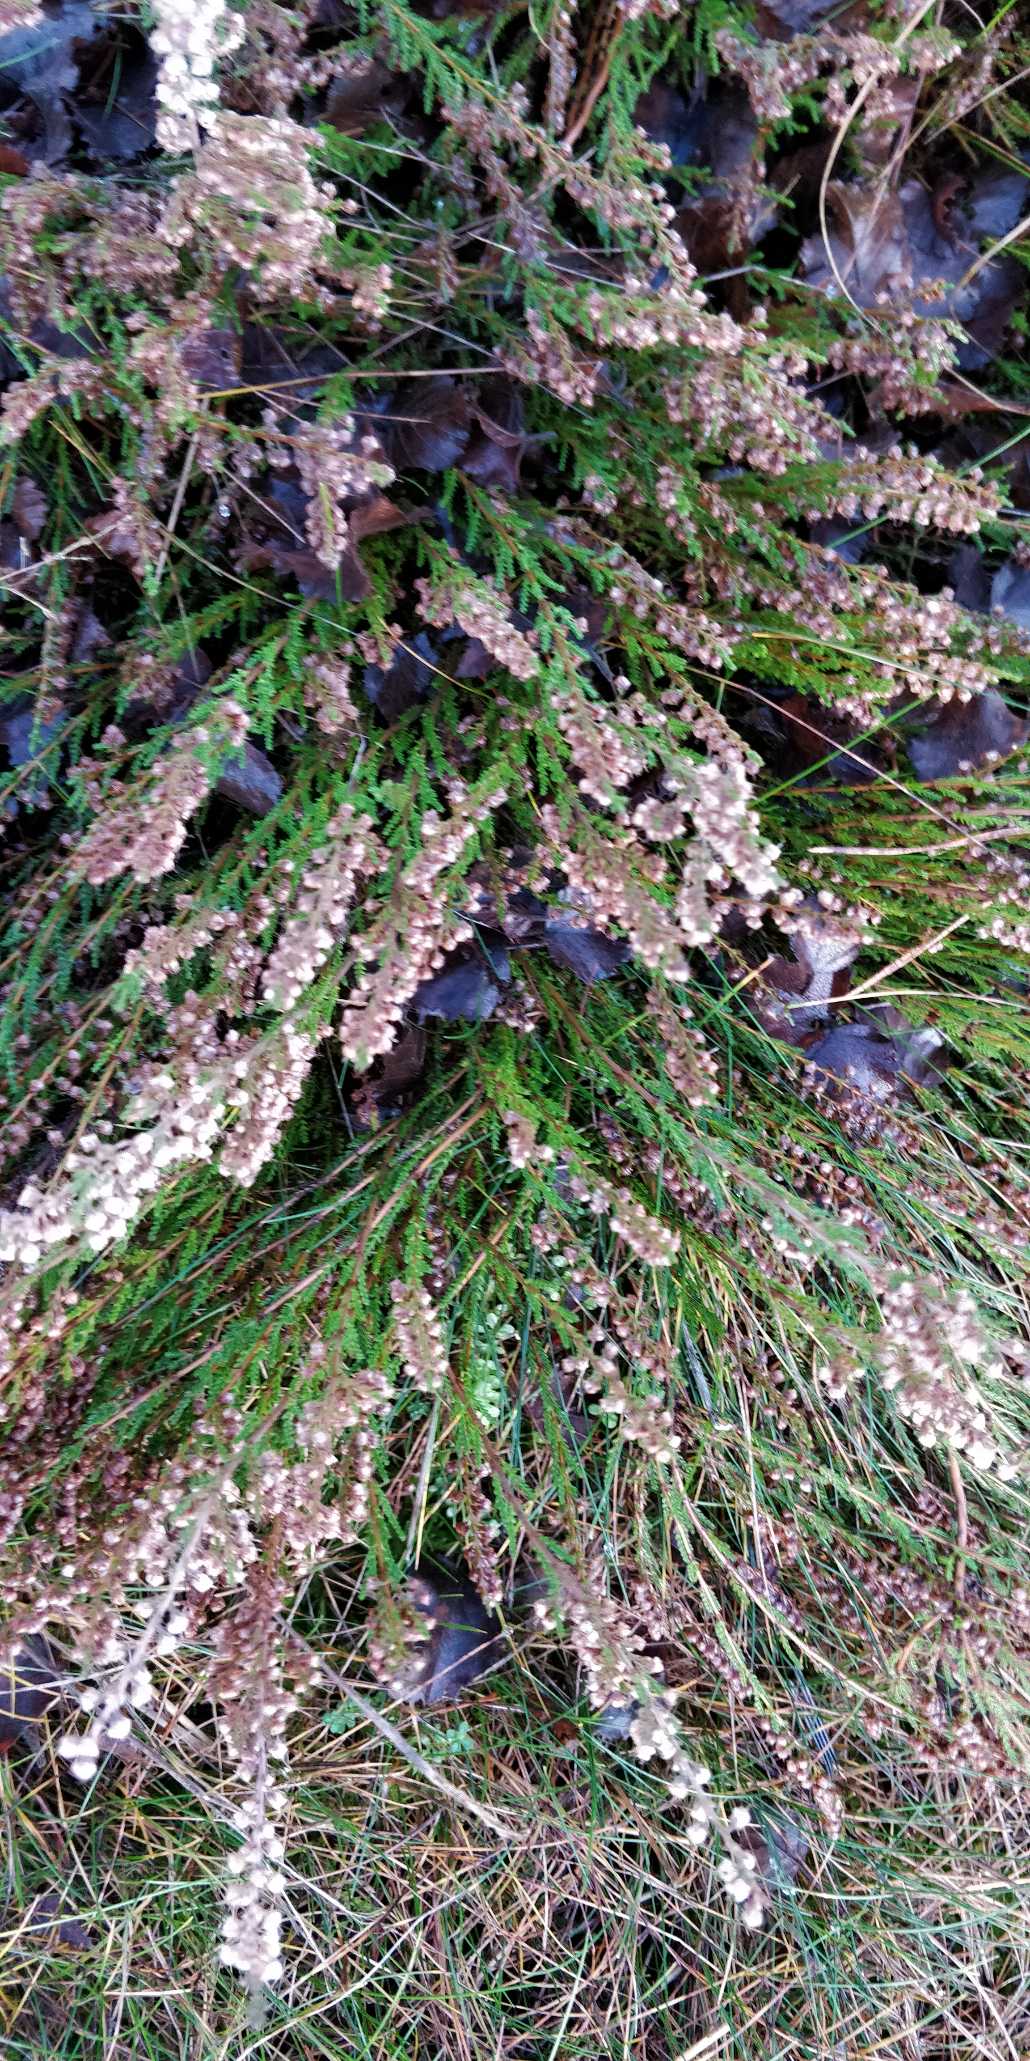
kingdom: Plantae
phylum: Tracheophyta
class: Magnoliopsida
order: Ericales
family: Ericaceae
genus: Calluna
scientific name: Calluna vulgaris
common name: Hedelyng
